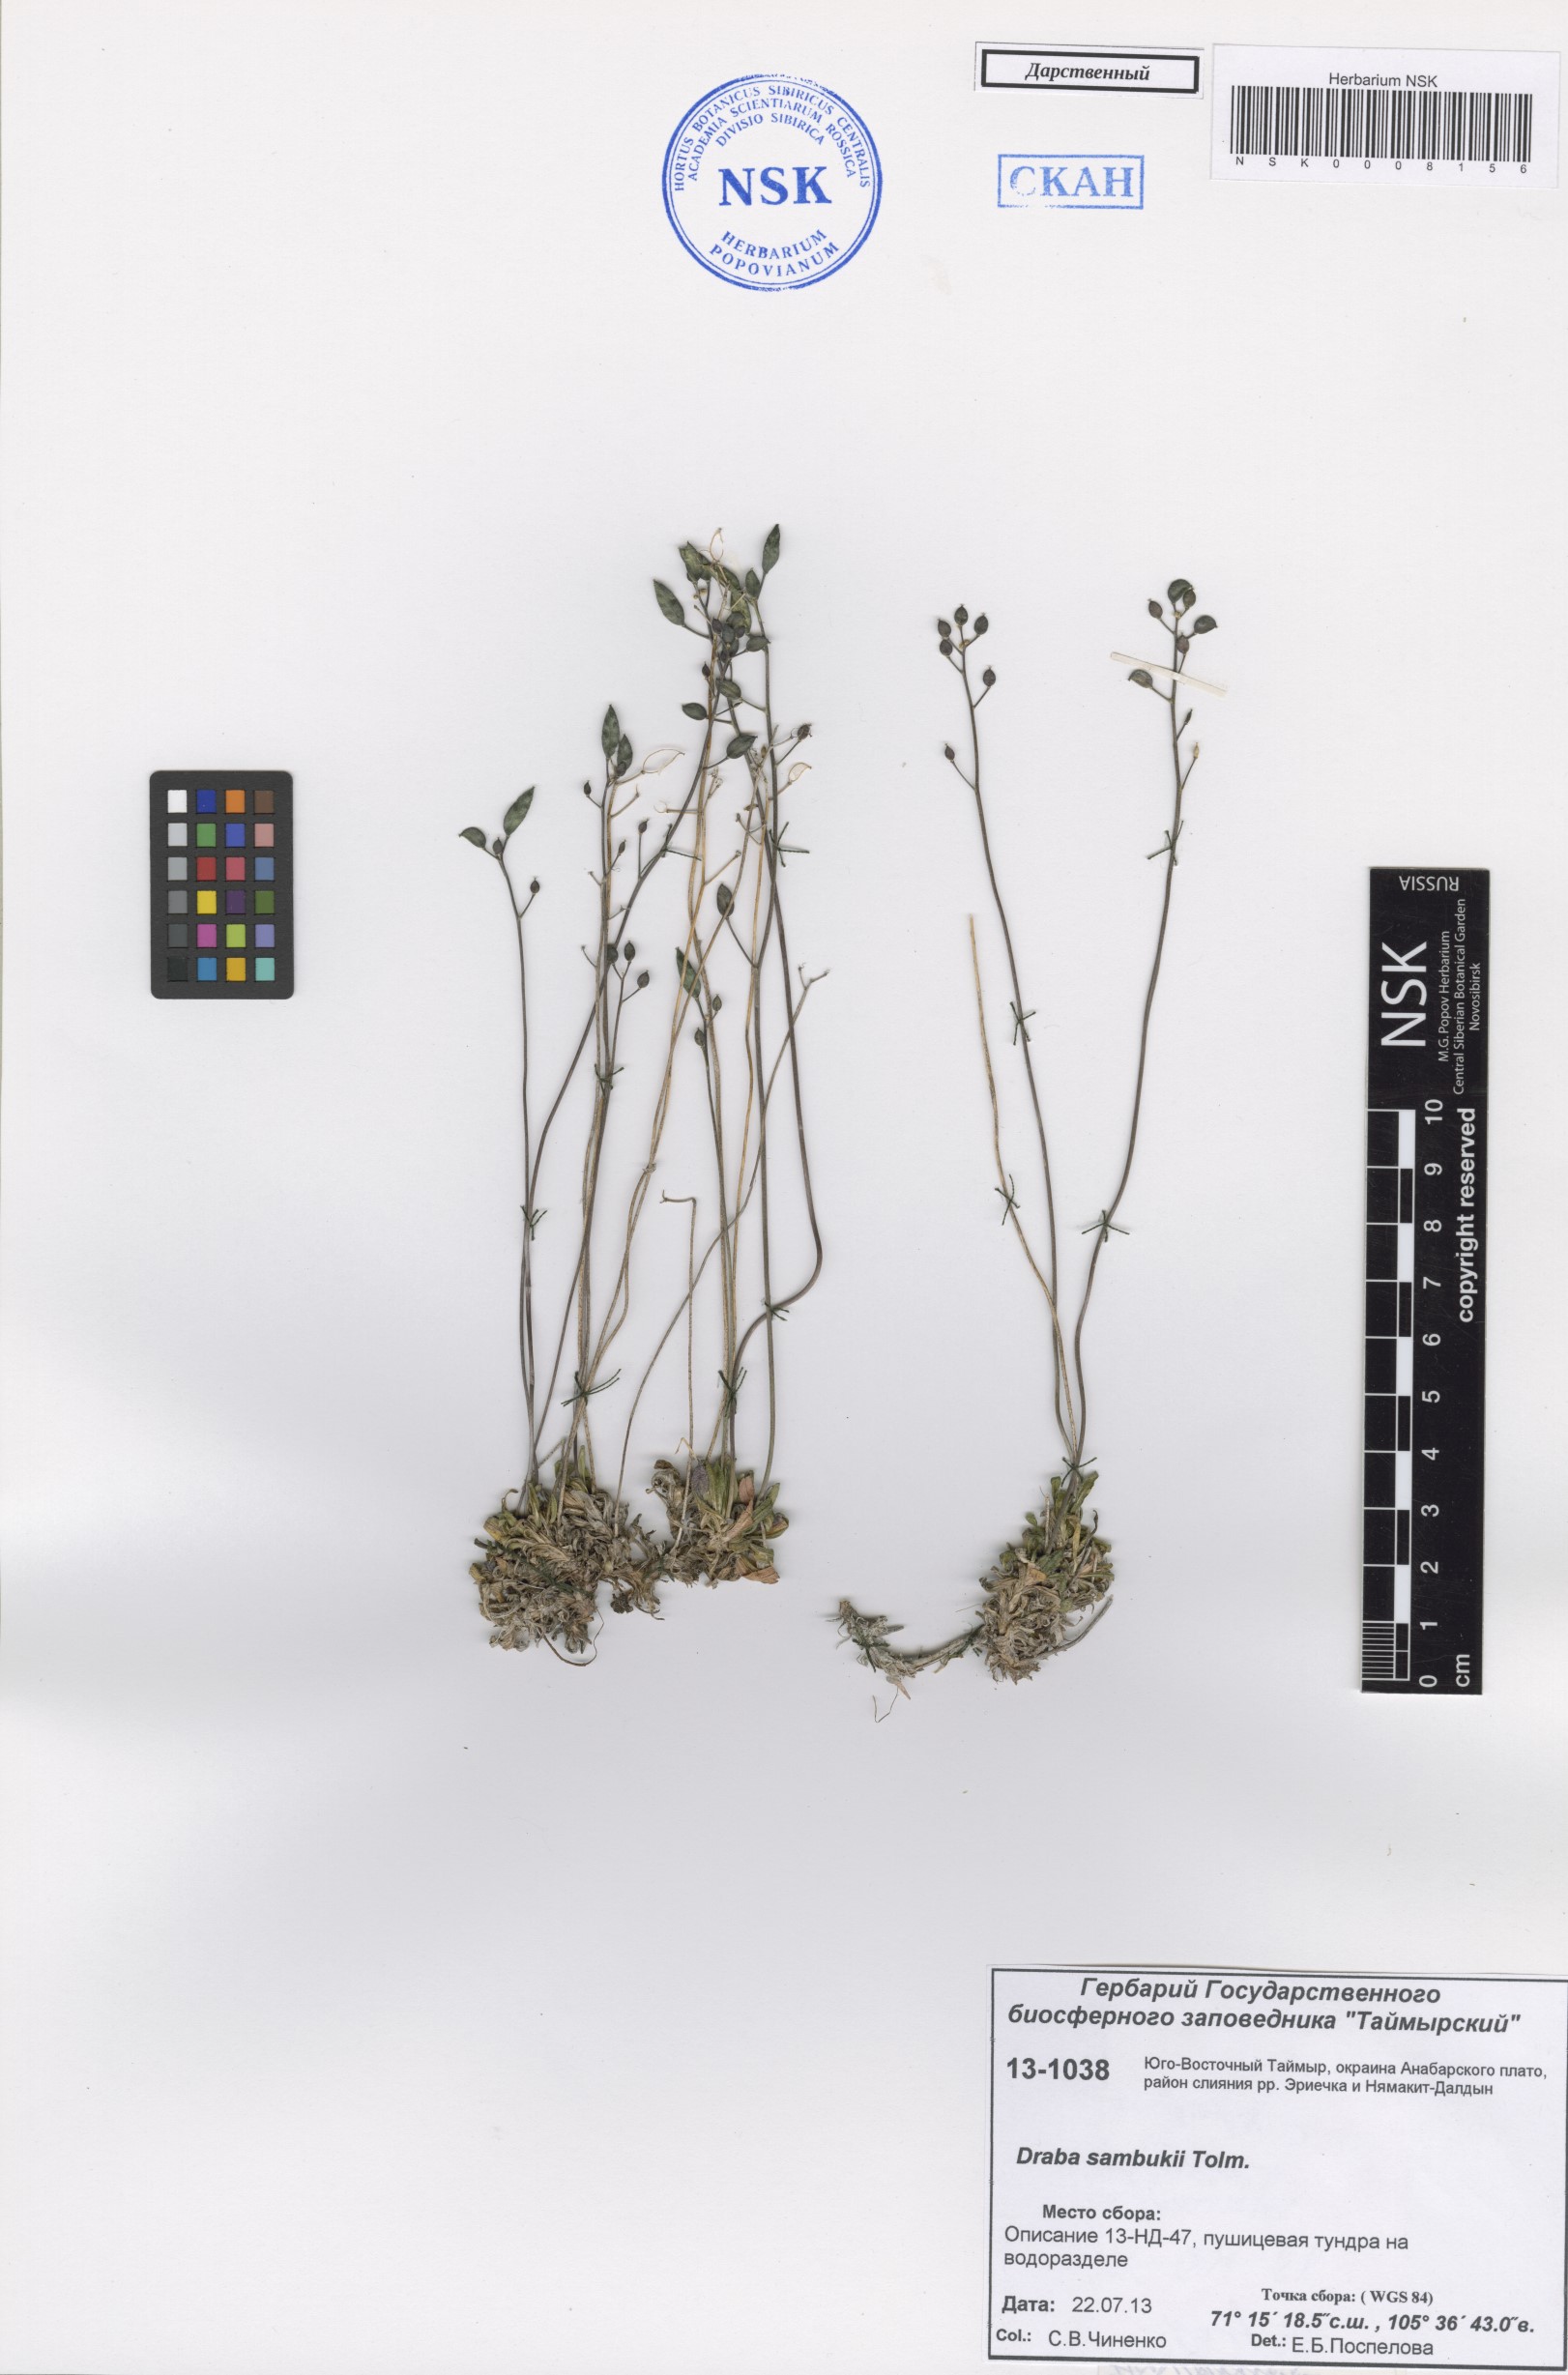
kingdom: Plantae
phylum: Tracheophyta
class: Magnoliopsida
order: Brassicales
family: Brassicaceae
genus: Draba
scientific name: Draba sambukii
